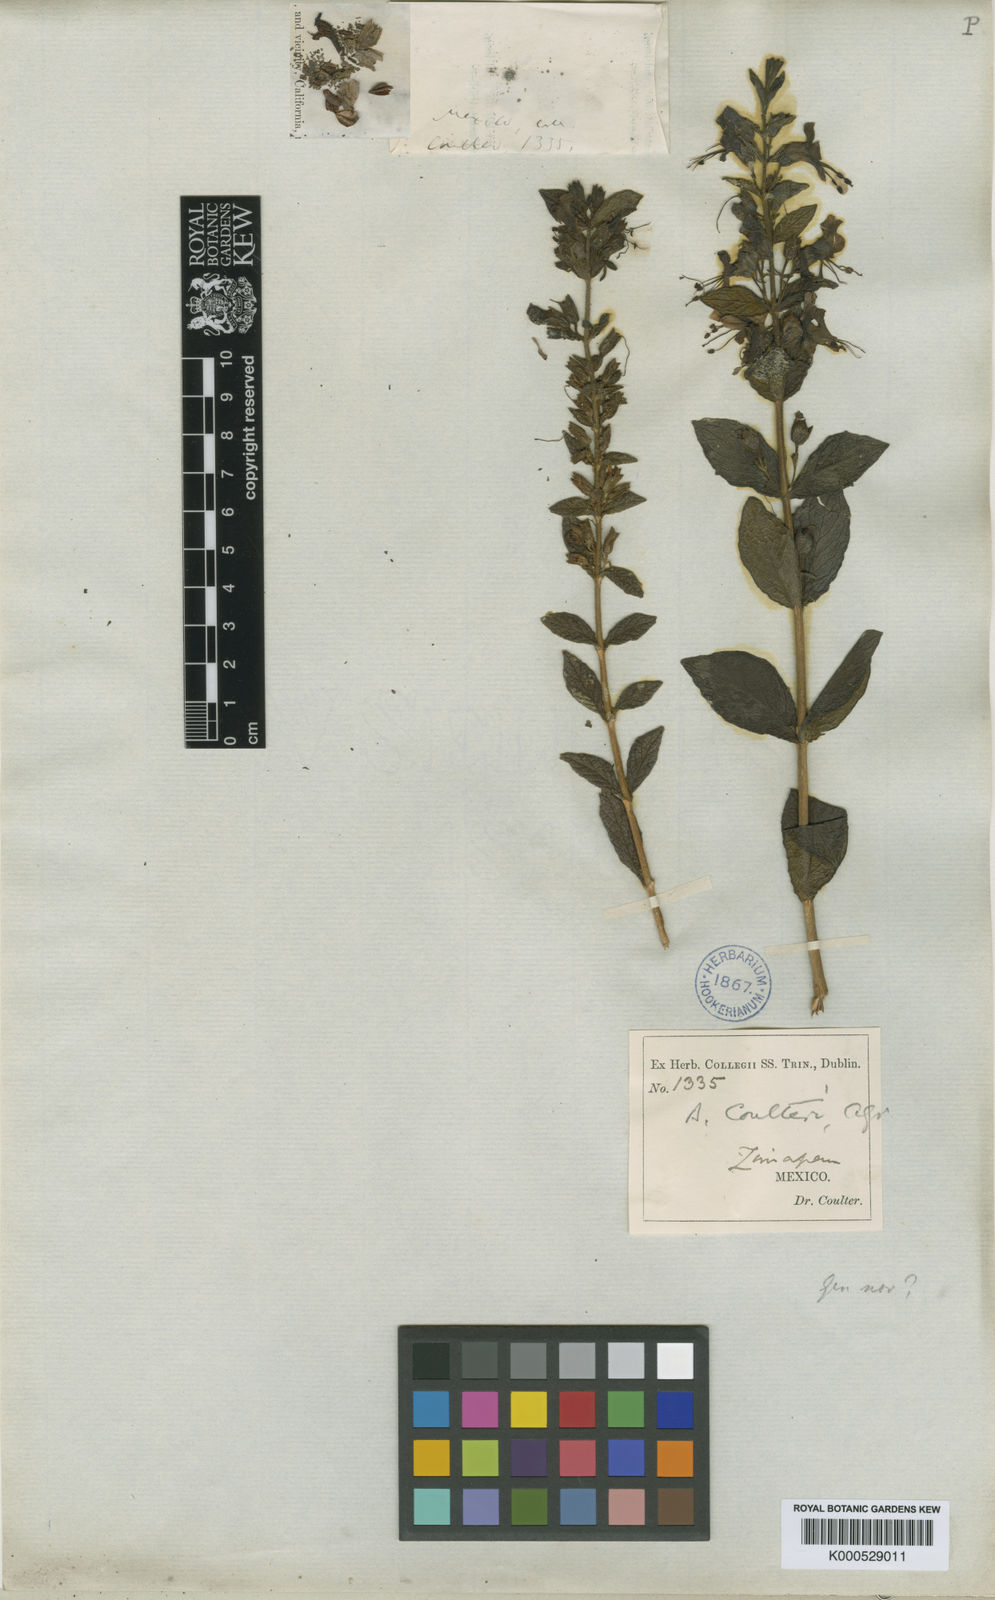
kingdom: Plantae
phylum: Tracheophyta
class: Magnoliopsida
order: Lamiales
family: Phrymaceae
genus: Hemichaena
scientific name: Hemichaena coulteri
